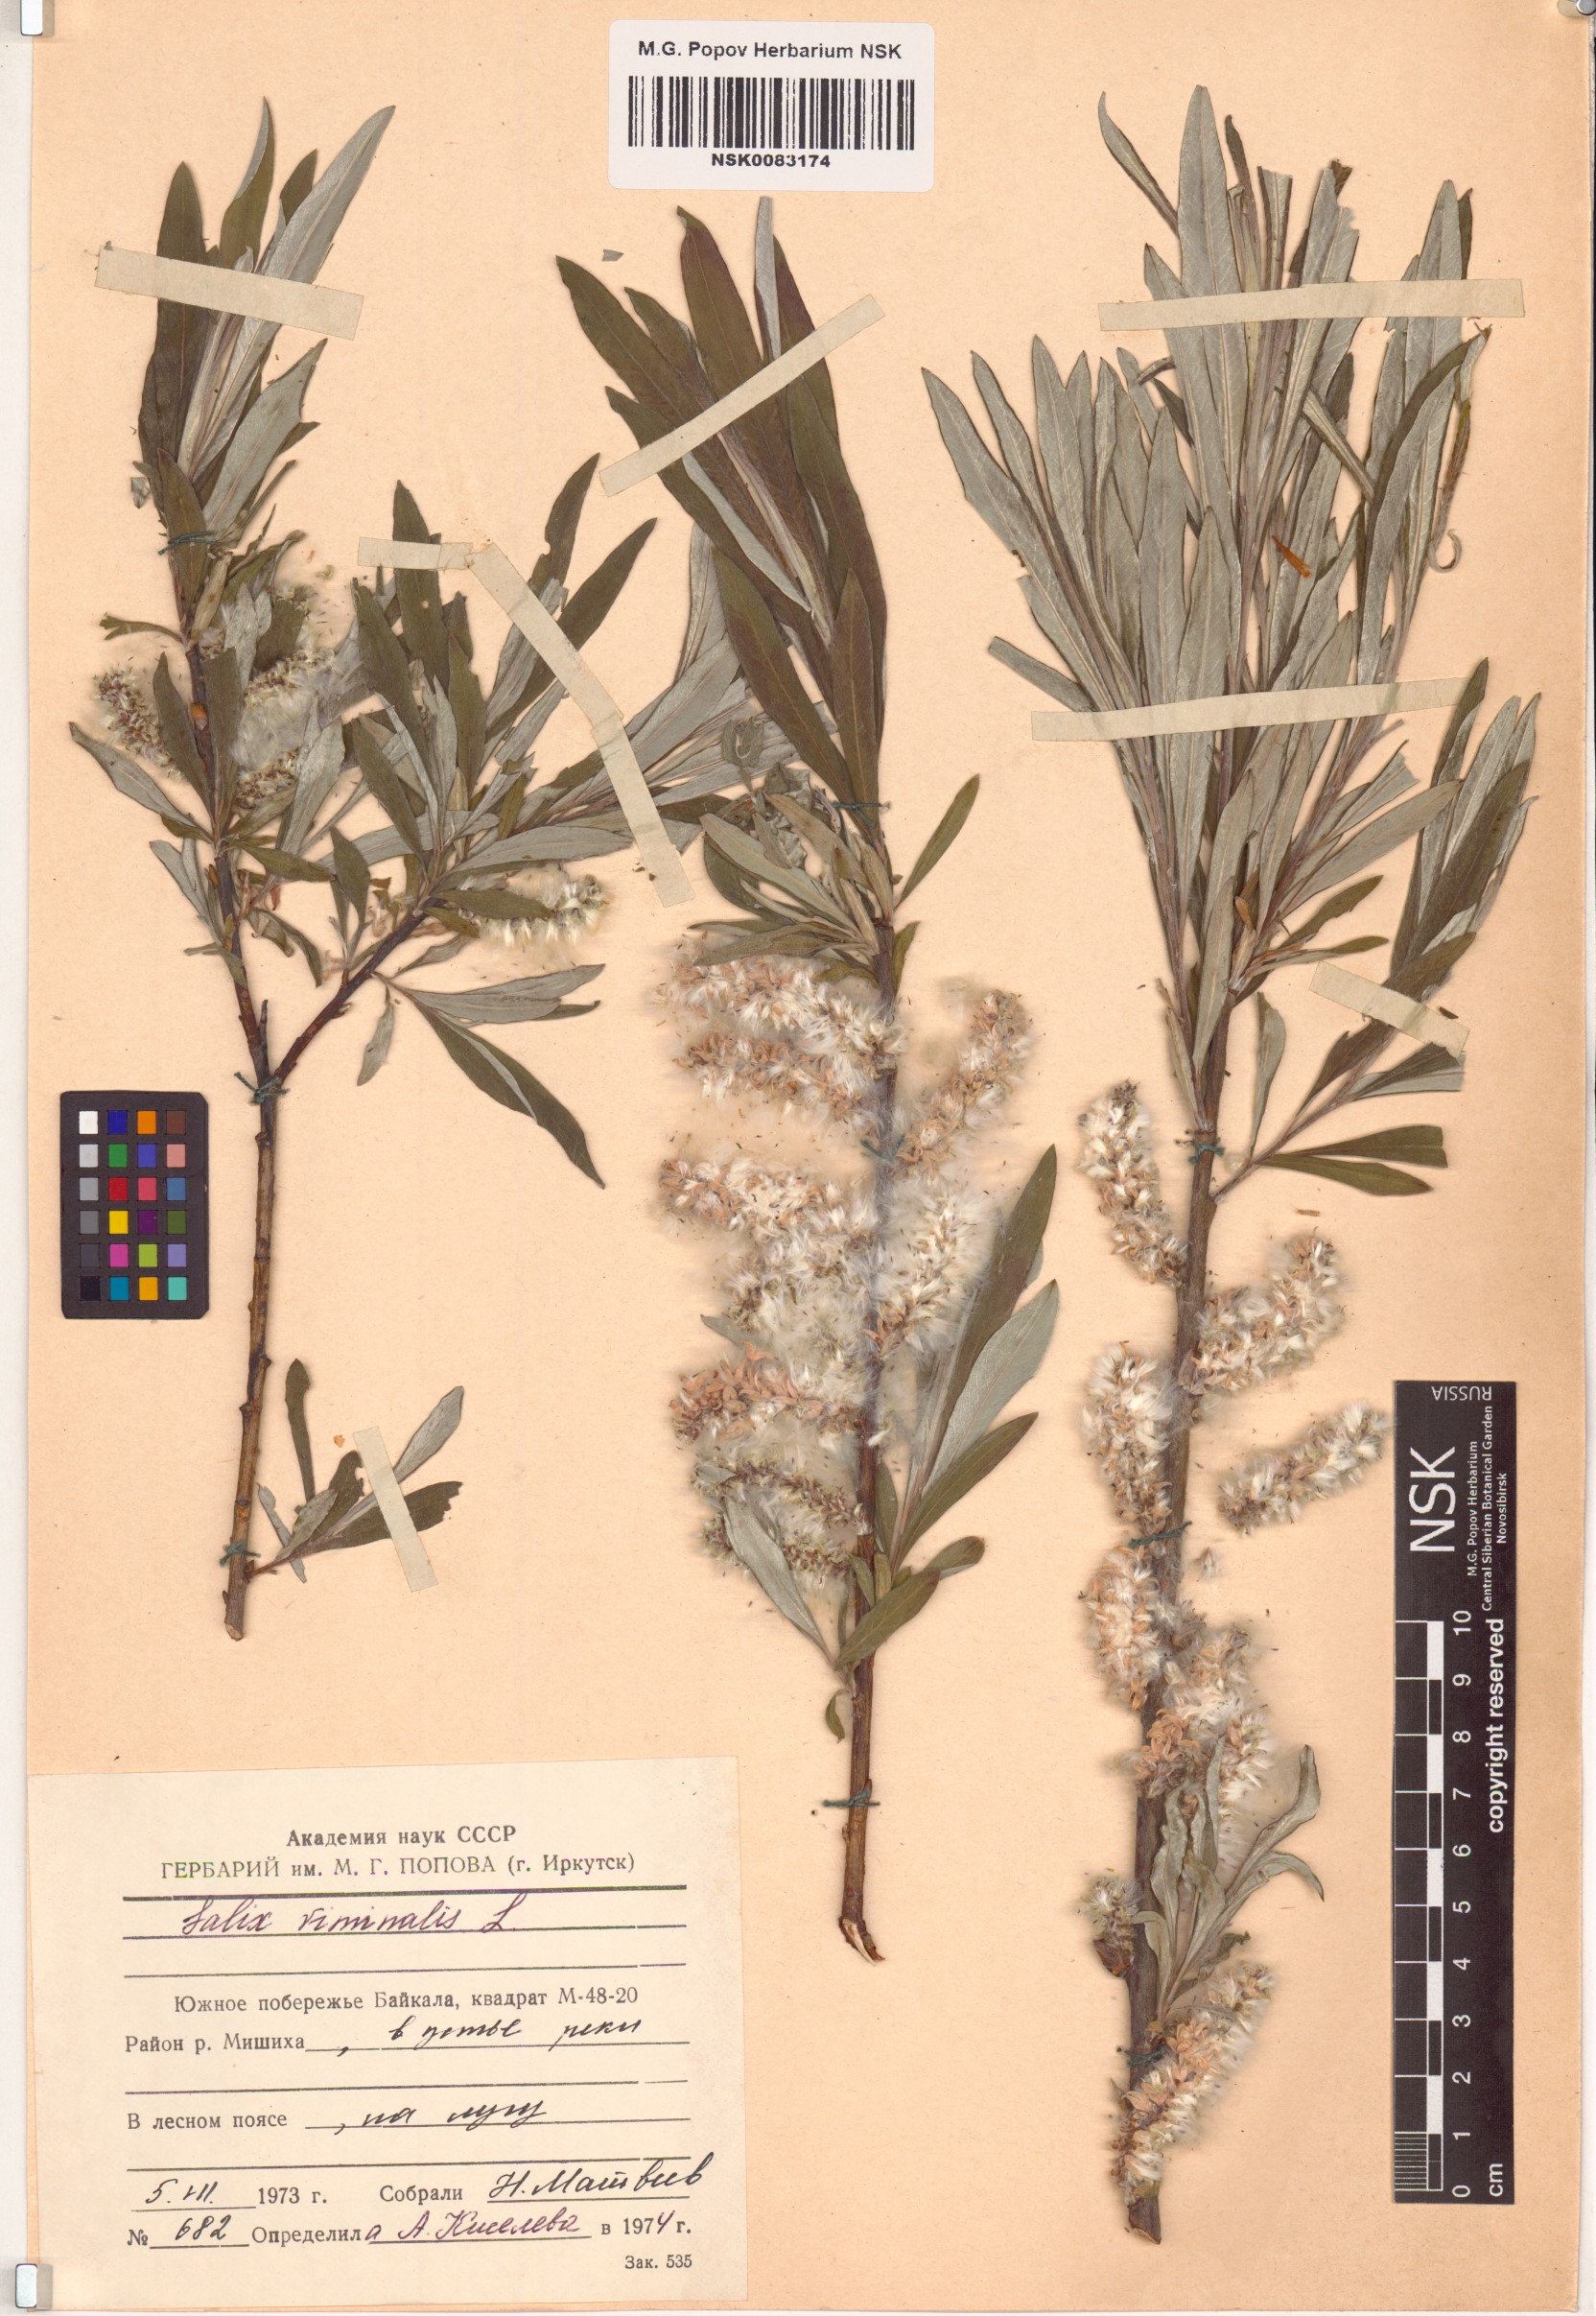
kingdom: Plantae
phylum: Tracheophyta
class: Magnoliopsida
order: Malpighiales
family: Salicaceae
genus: Salix
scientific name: Salix viminalis
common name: Osier
